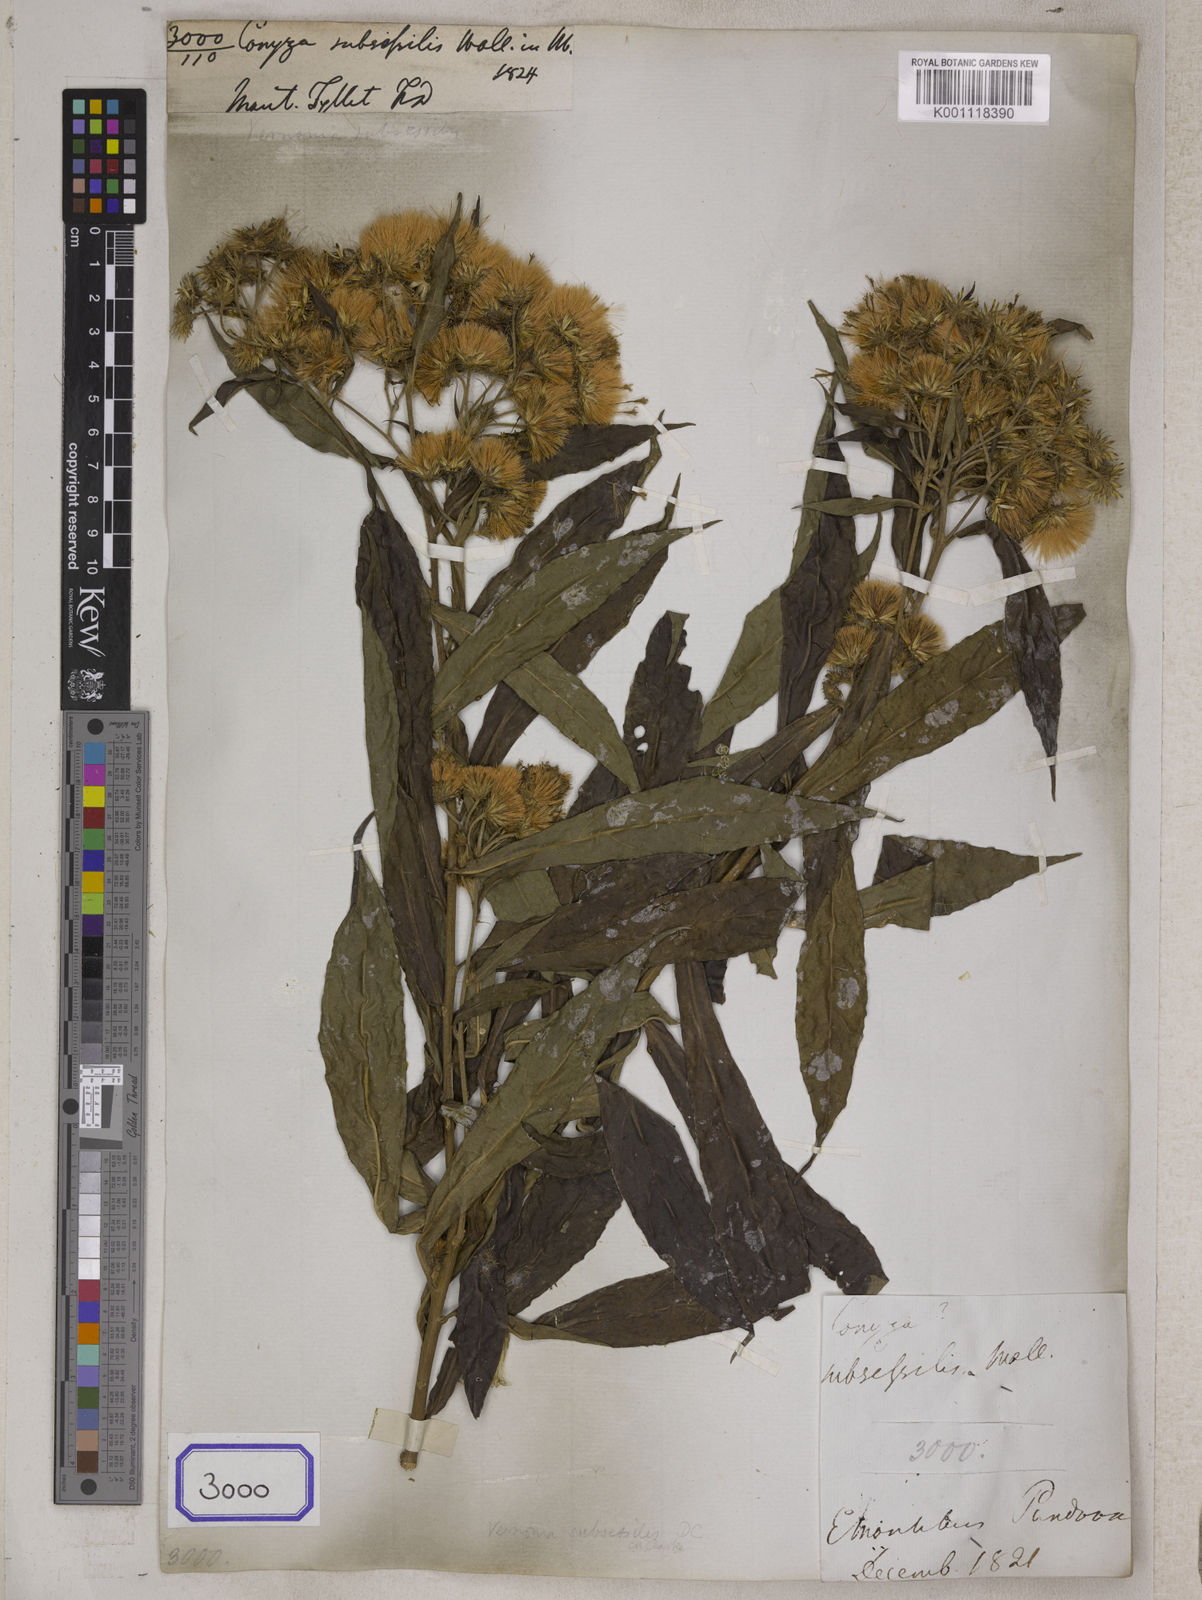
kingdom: Plantae
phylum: Tracheophyta
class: Magnoliopsida
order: Asterales
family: Asteraceae
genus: Khasianthus
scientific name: Khasianthus subsessilis
